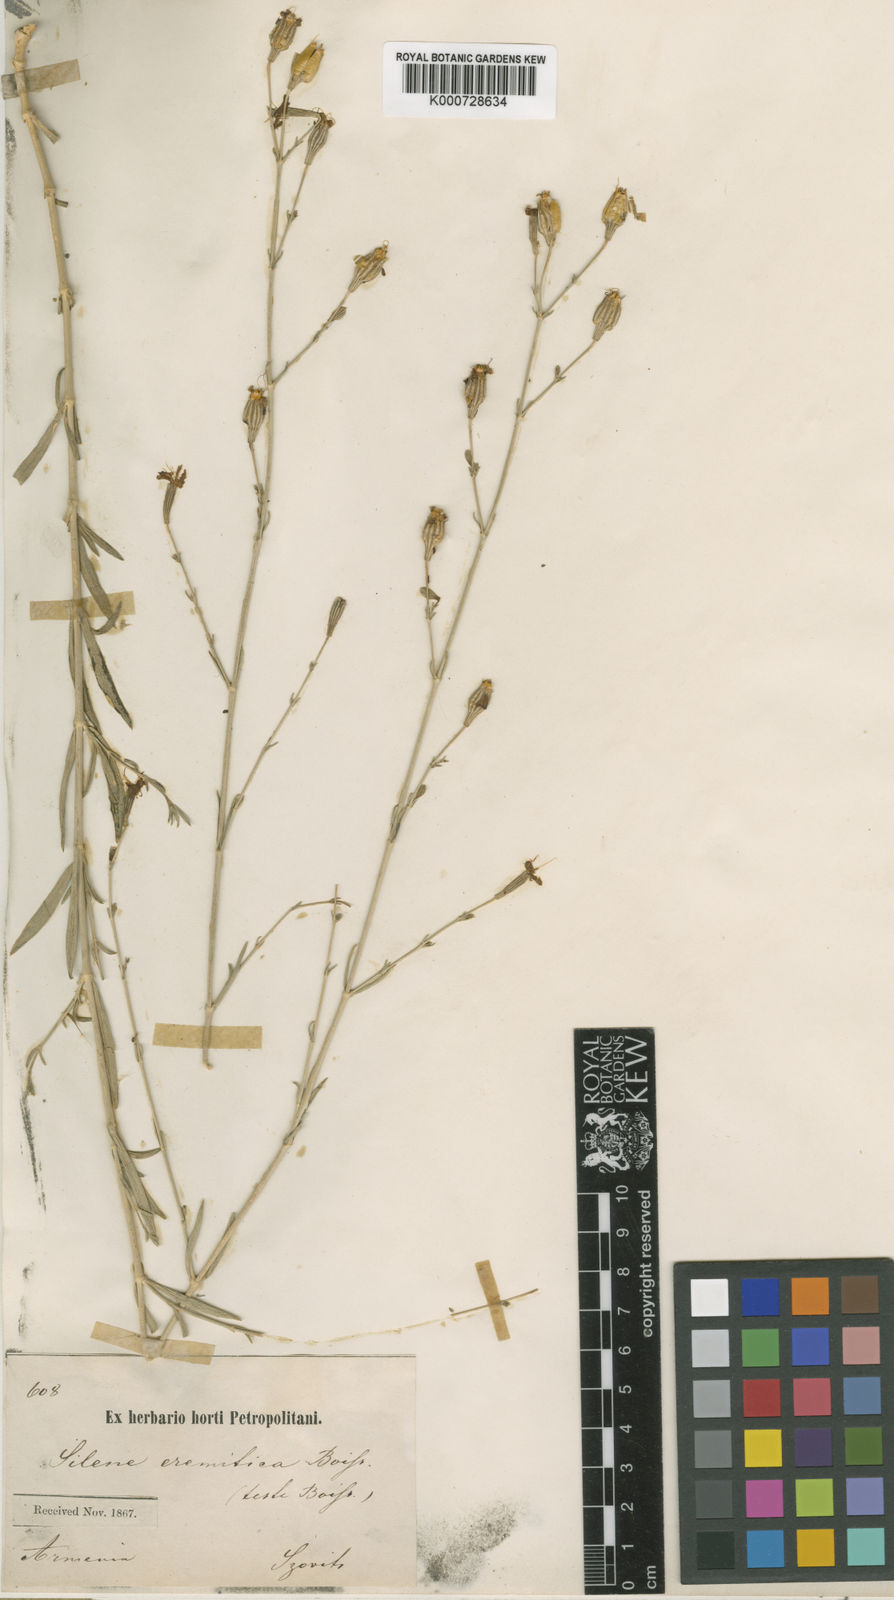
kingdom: Plantae
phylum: Tracheophyta
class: Magnoliopsida
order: Caryophyllales
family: Caryophyllaceae
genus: Silene
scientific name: Silene eremitica
